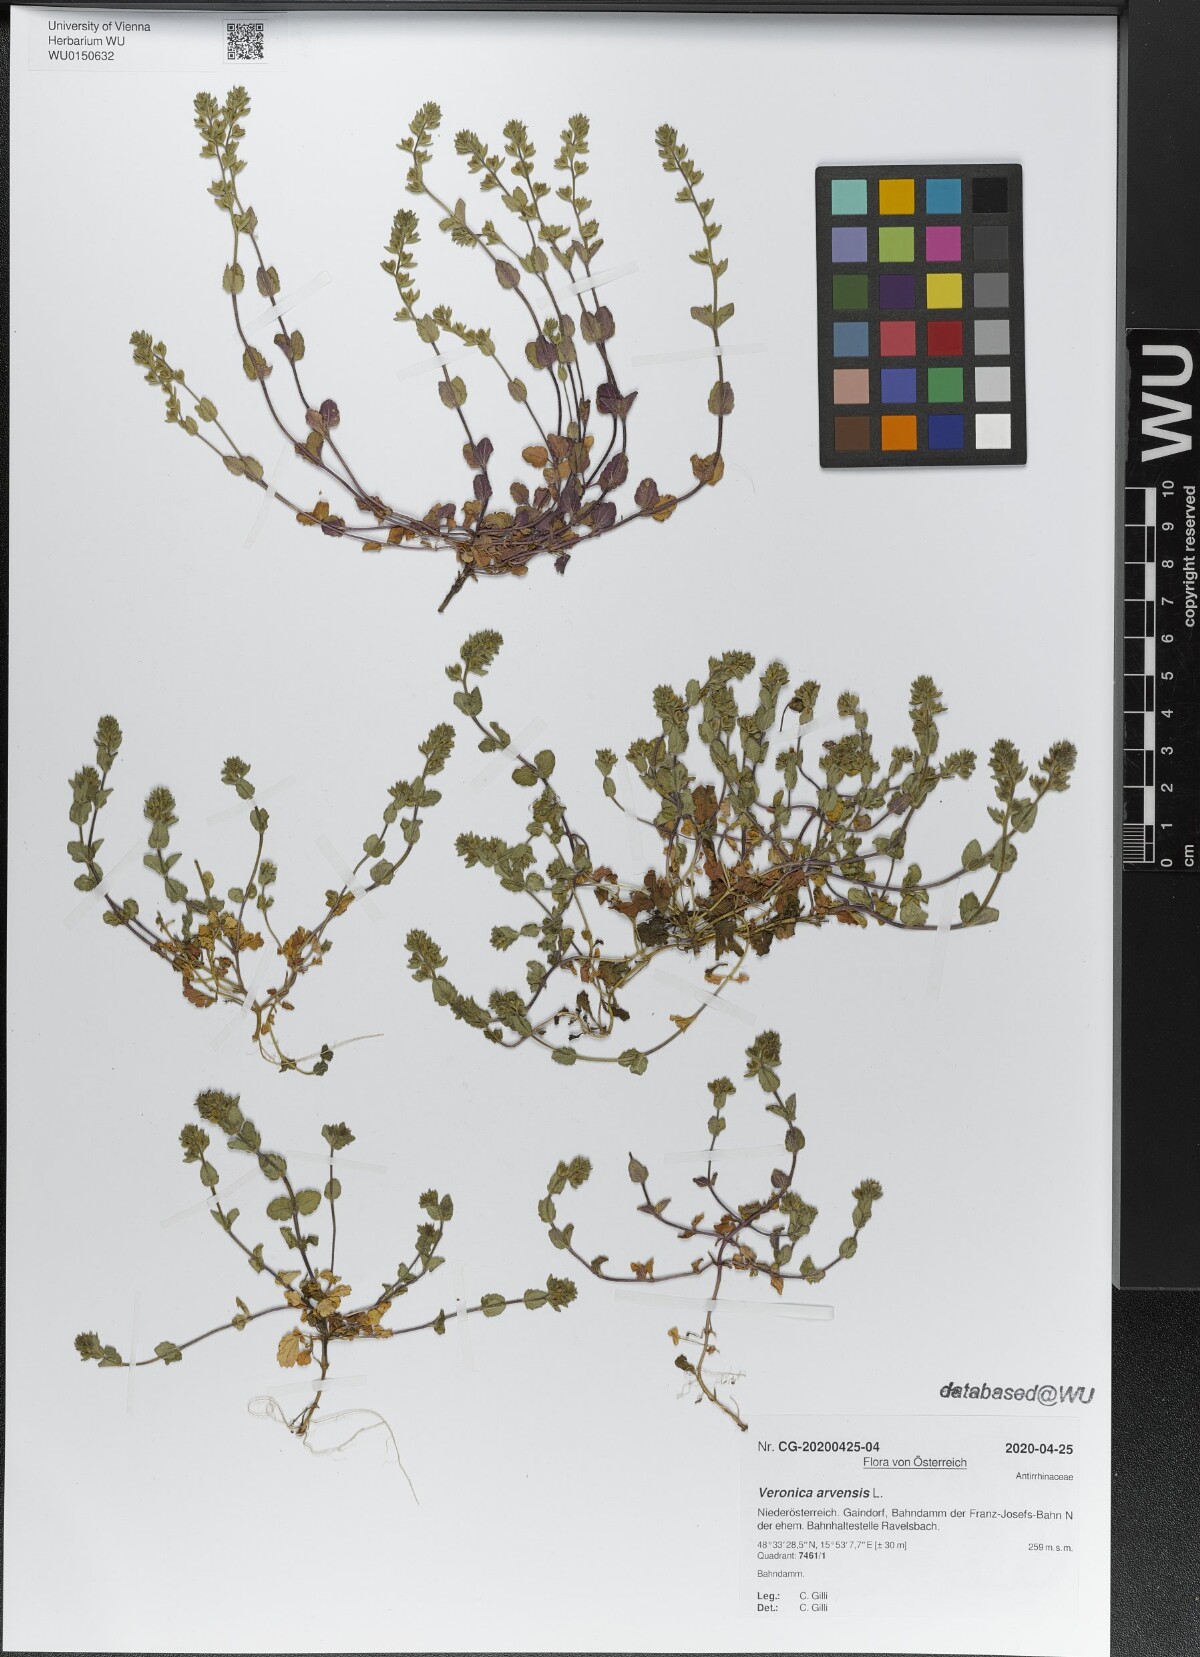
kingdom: Plantae
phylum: Tracheophyta
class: Magnoliopsida
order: Lamiales
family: Plantaginaceae
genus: Veronica
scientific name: Veronica arvensis
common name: Corn speedwell
